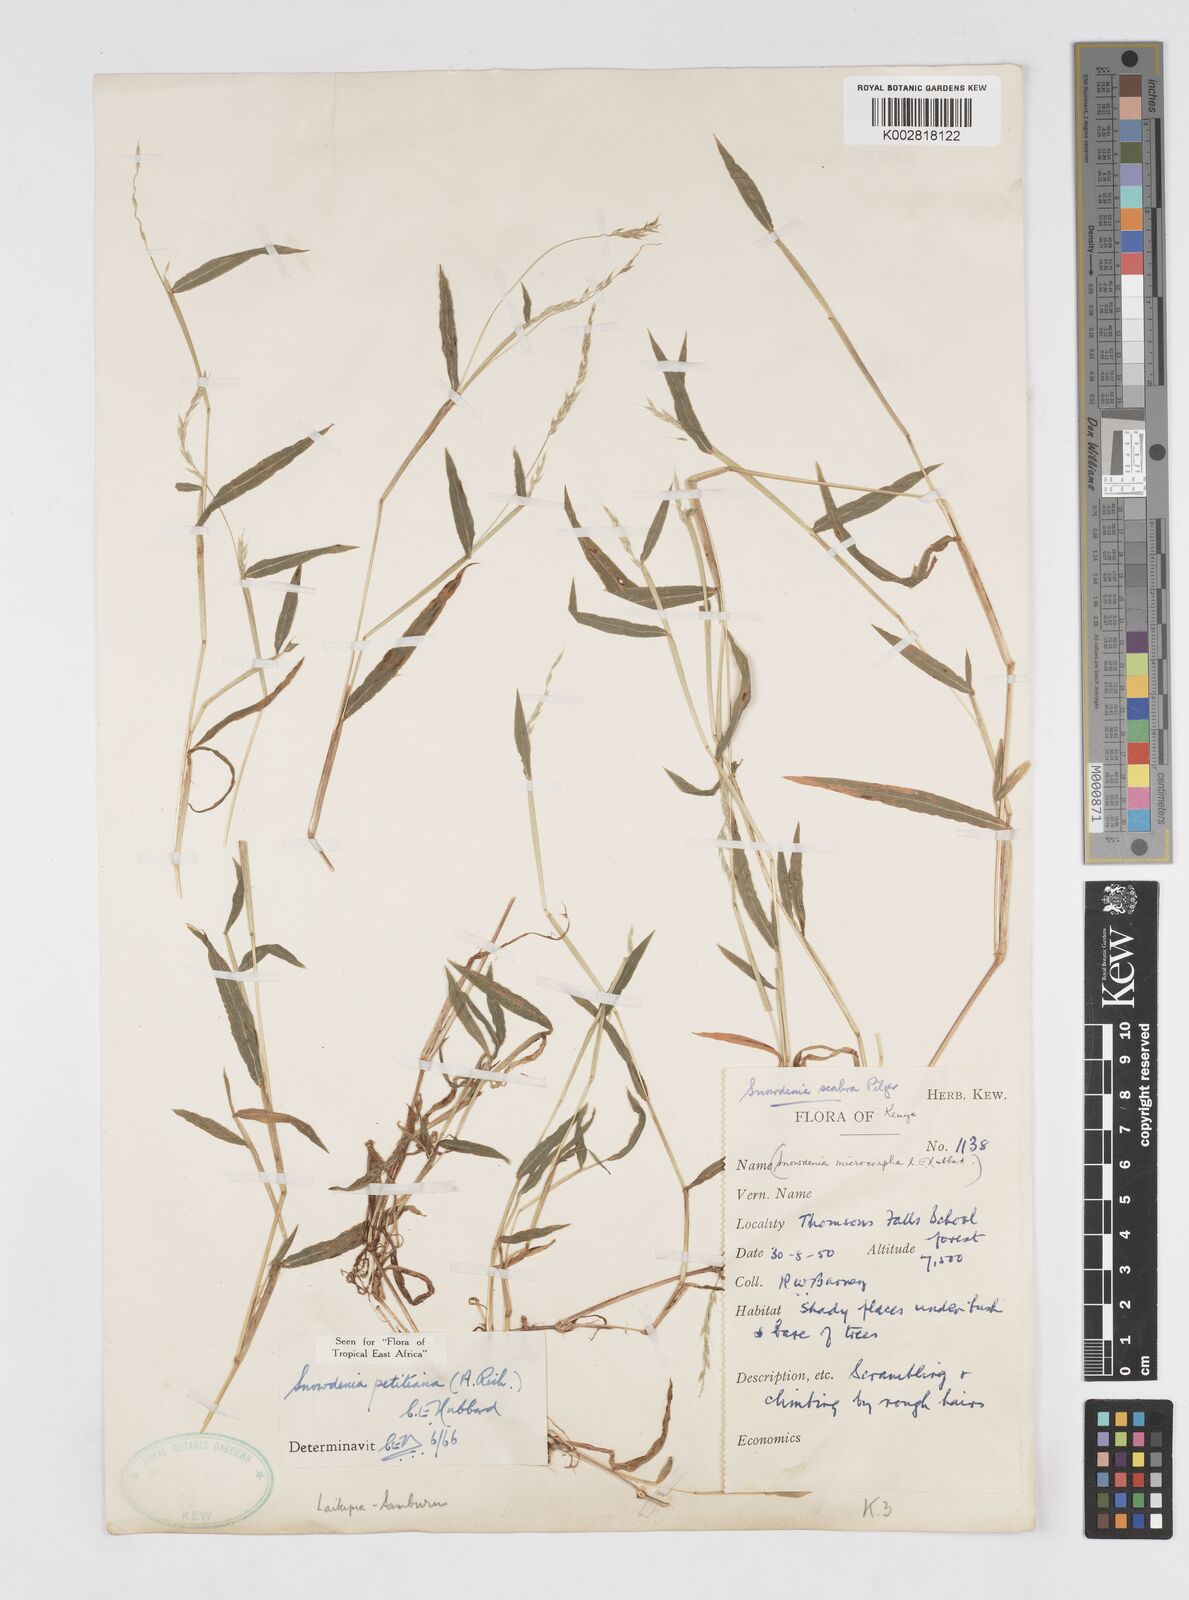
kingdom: Plantae
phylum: Tracheophyta
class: Liliopsida
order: Poales
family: Poaceae
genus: Snowdenia
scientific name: Snowdenia petitiana
